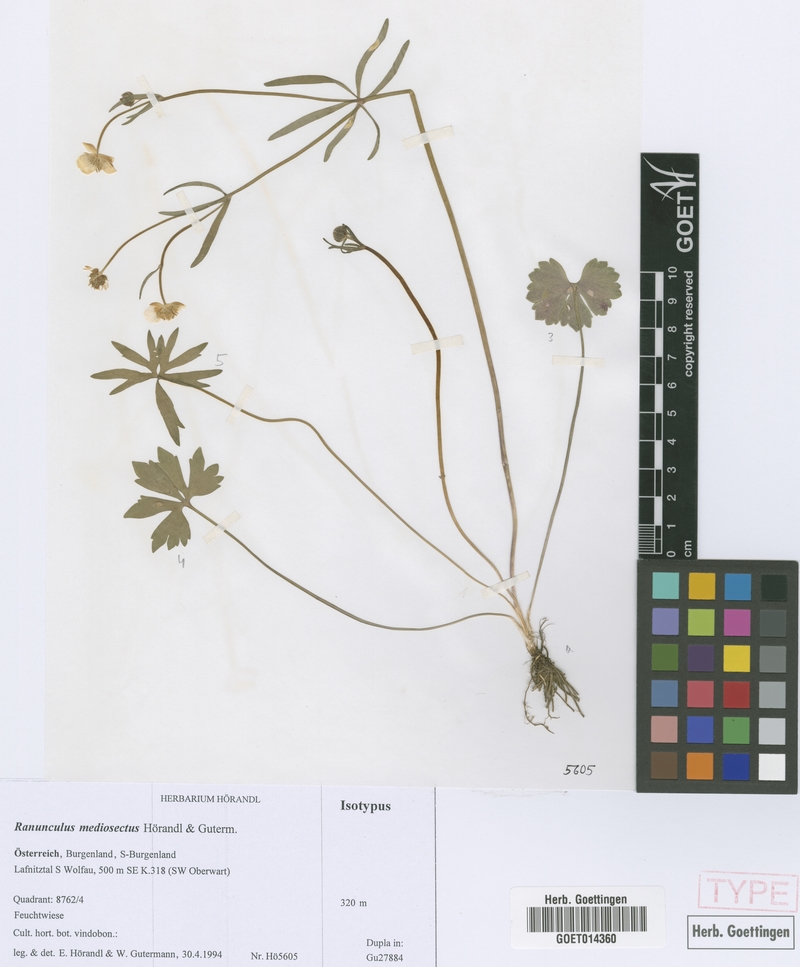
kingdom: Plantae
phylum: Tracheophyta
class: Magnoliopsida
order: Ranunculales
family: Ranunculaceae
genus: Ranunculus
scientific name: Ranunculus mediosectus
